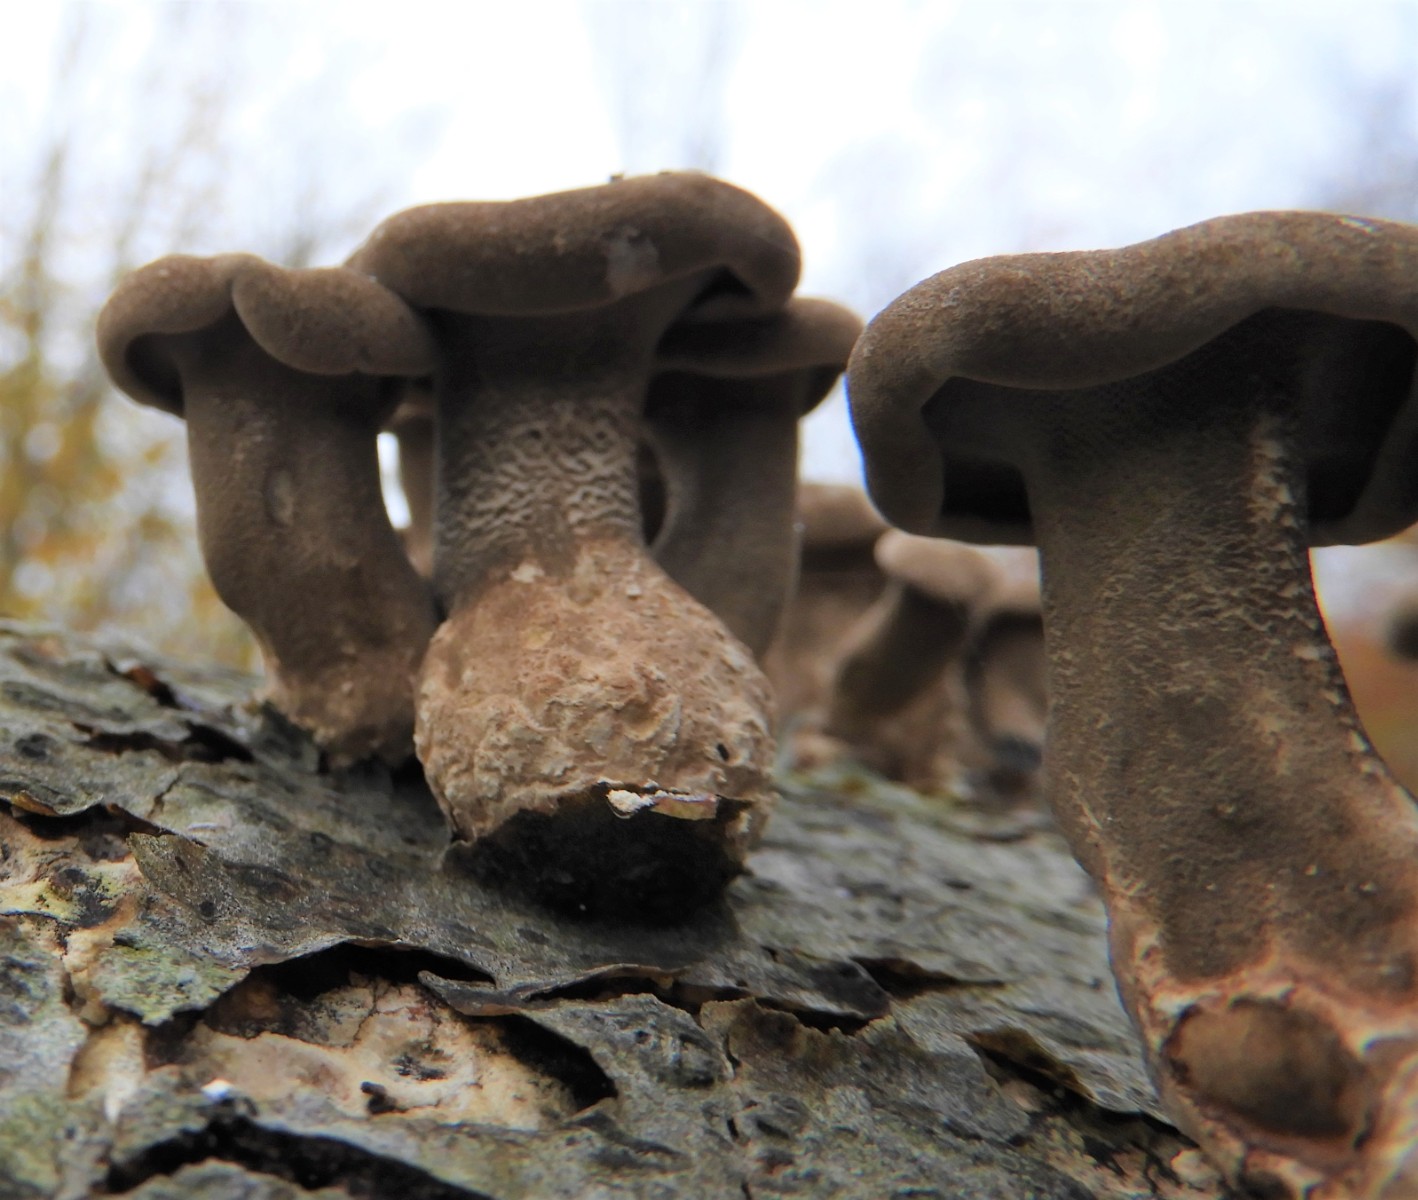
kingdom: Fungi
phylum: Basidiomycota
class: Agaricomycetes
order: Polyporales
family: Polyporaceae
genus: Lentinus
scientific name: Lentinus brumalis
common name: vinter-stilkporesvamp
